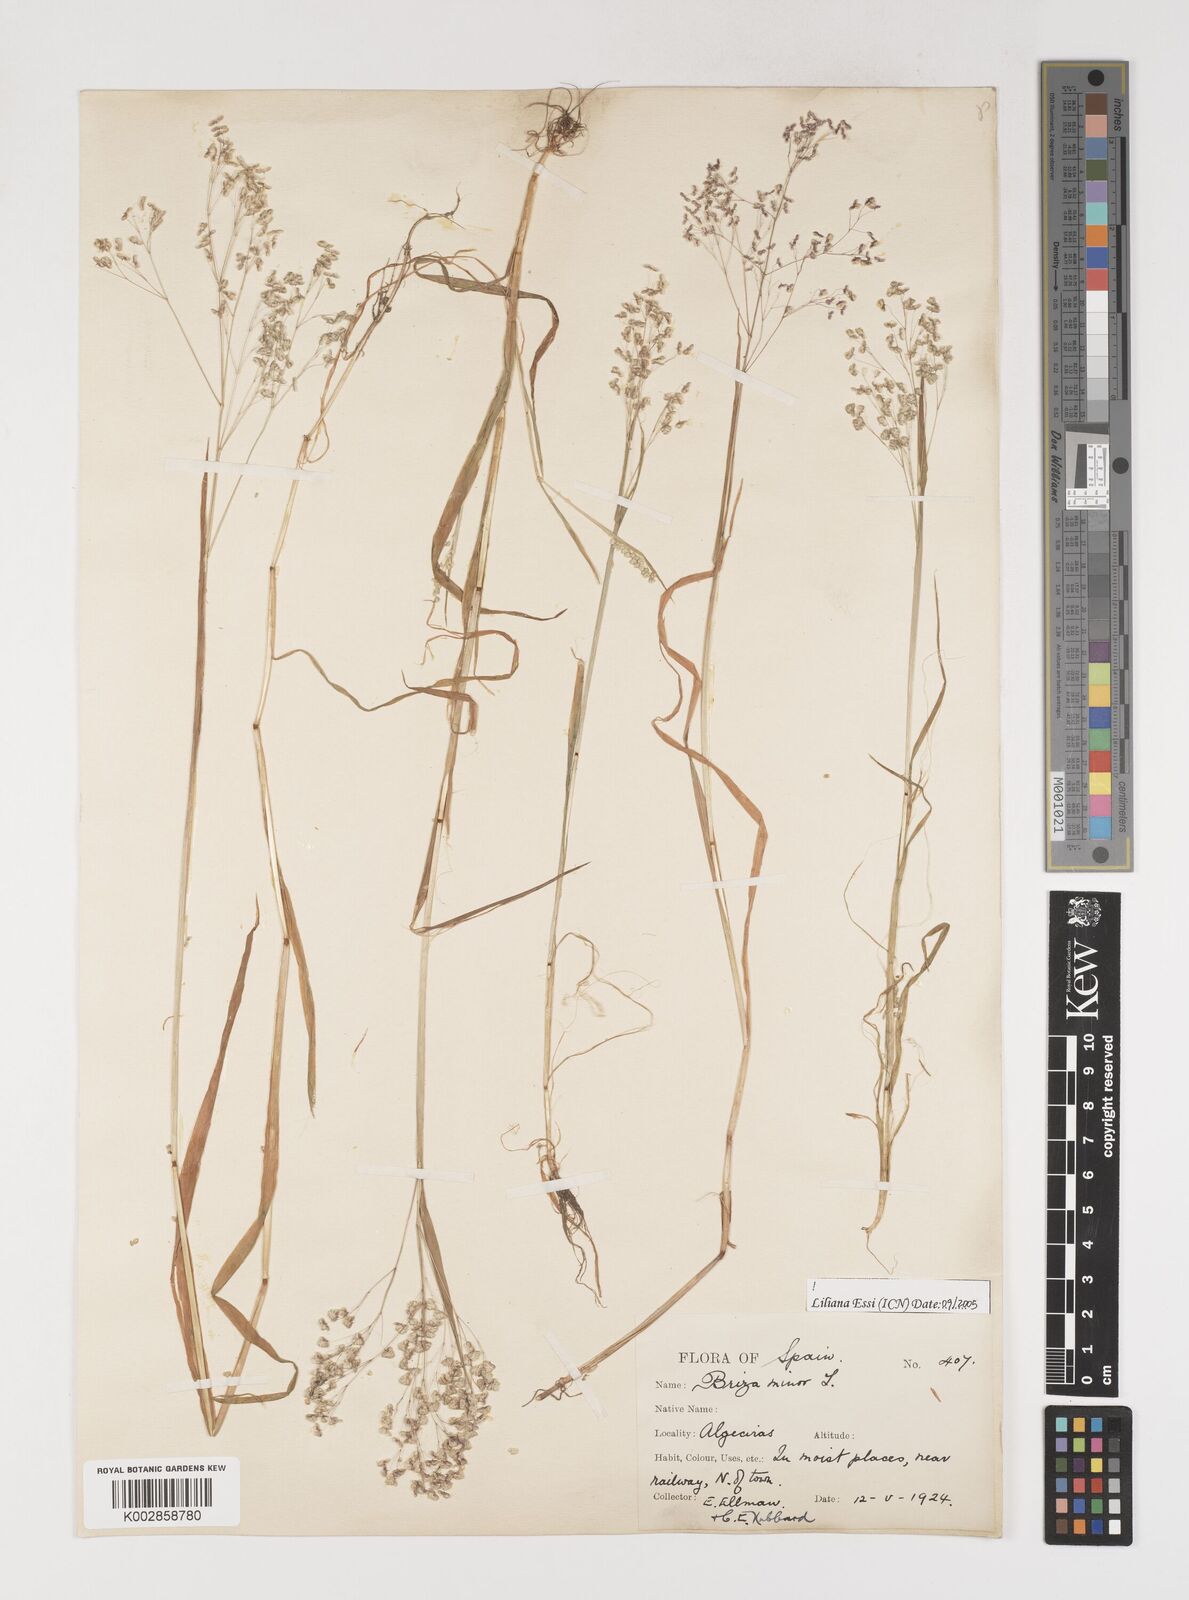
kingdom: Plantae
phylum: Tracheophyta
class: Liliopsida
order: Poales
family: Poaceae
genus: Briza
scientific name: Briza minor
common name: Lesser quaking-grass
